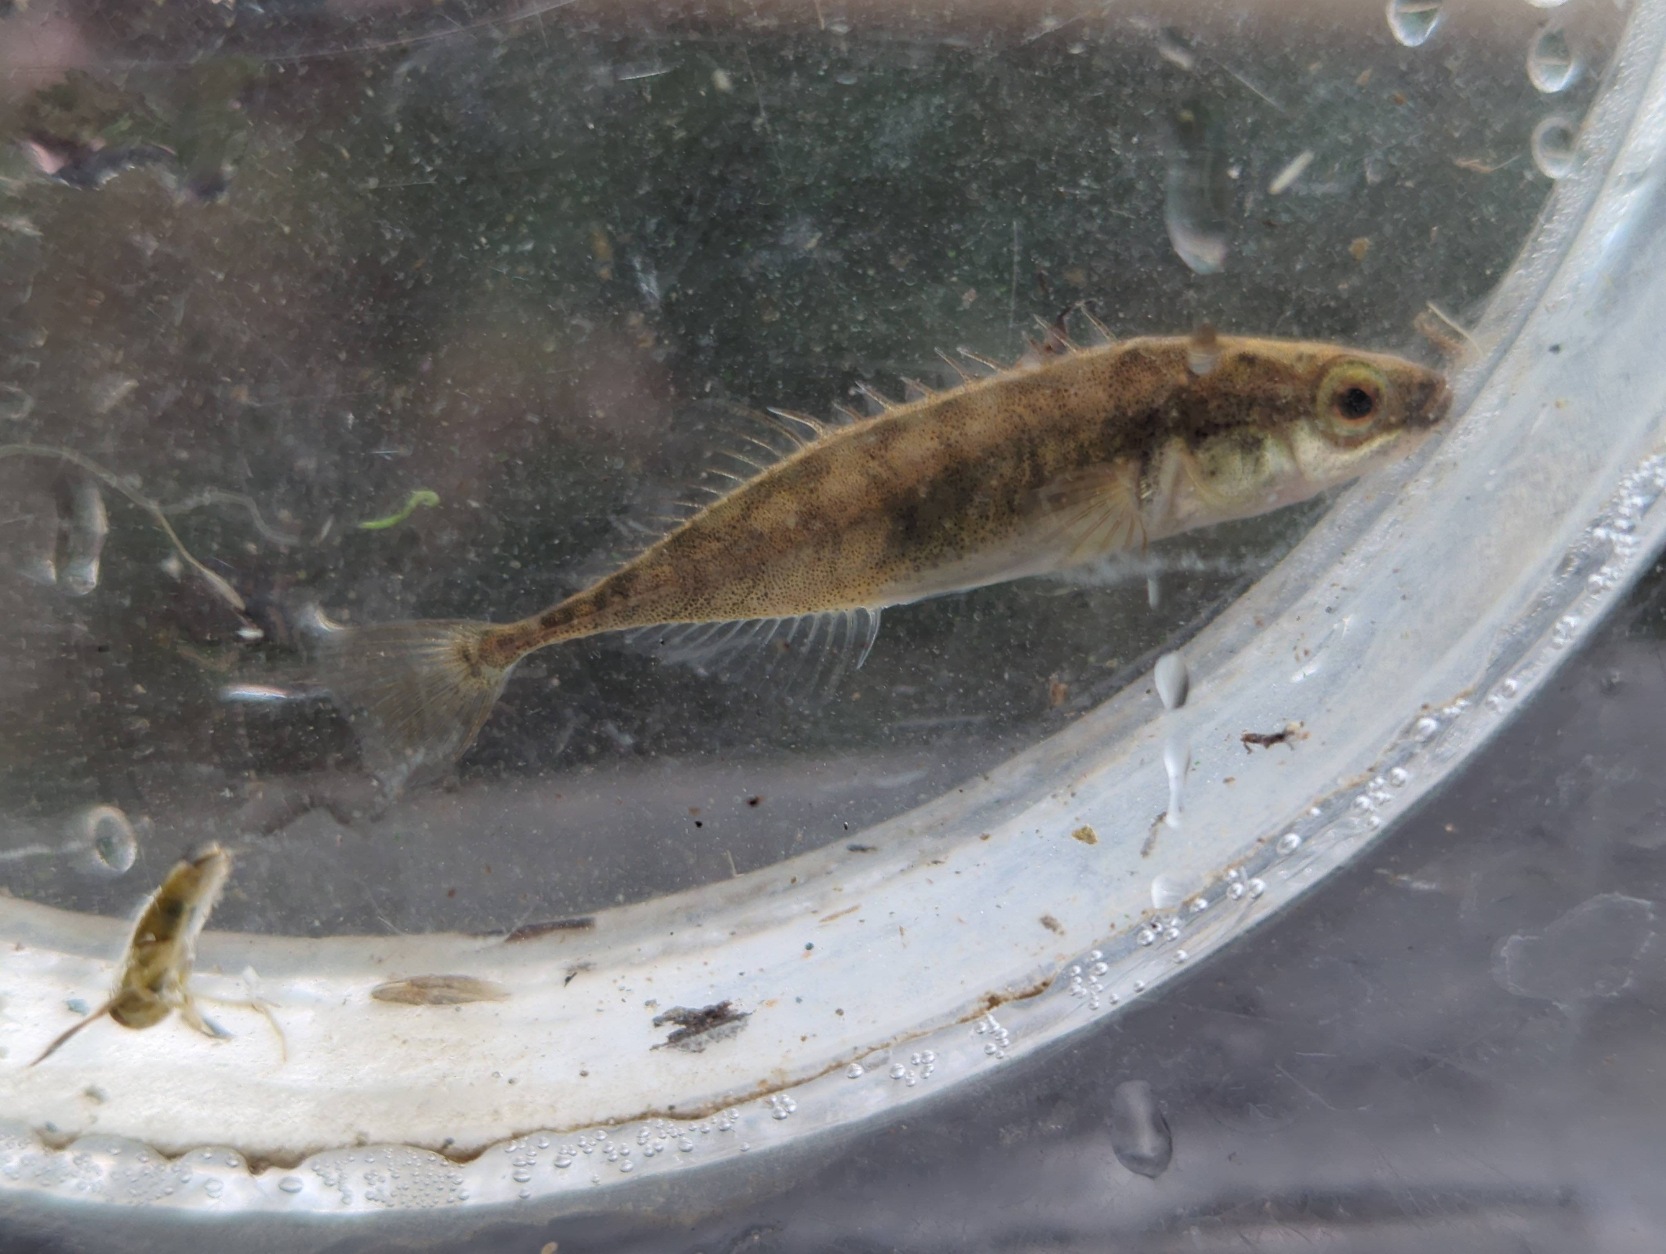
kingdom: Animalia
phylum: Chordata
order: Gasterosteiformes
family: Gasterosteidae
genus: Pungitius
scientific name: Pungitius pungitius
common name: Nipigget hundestejle
